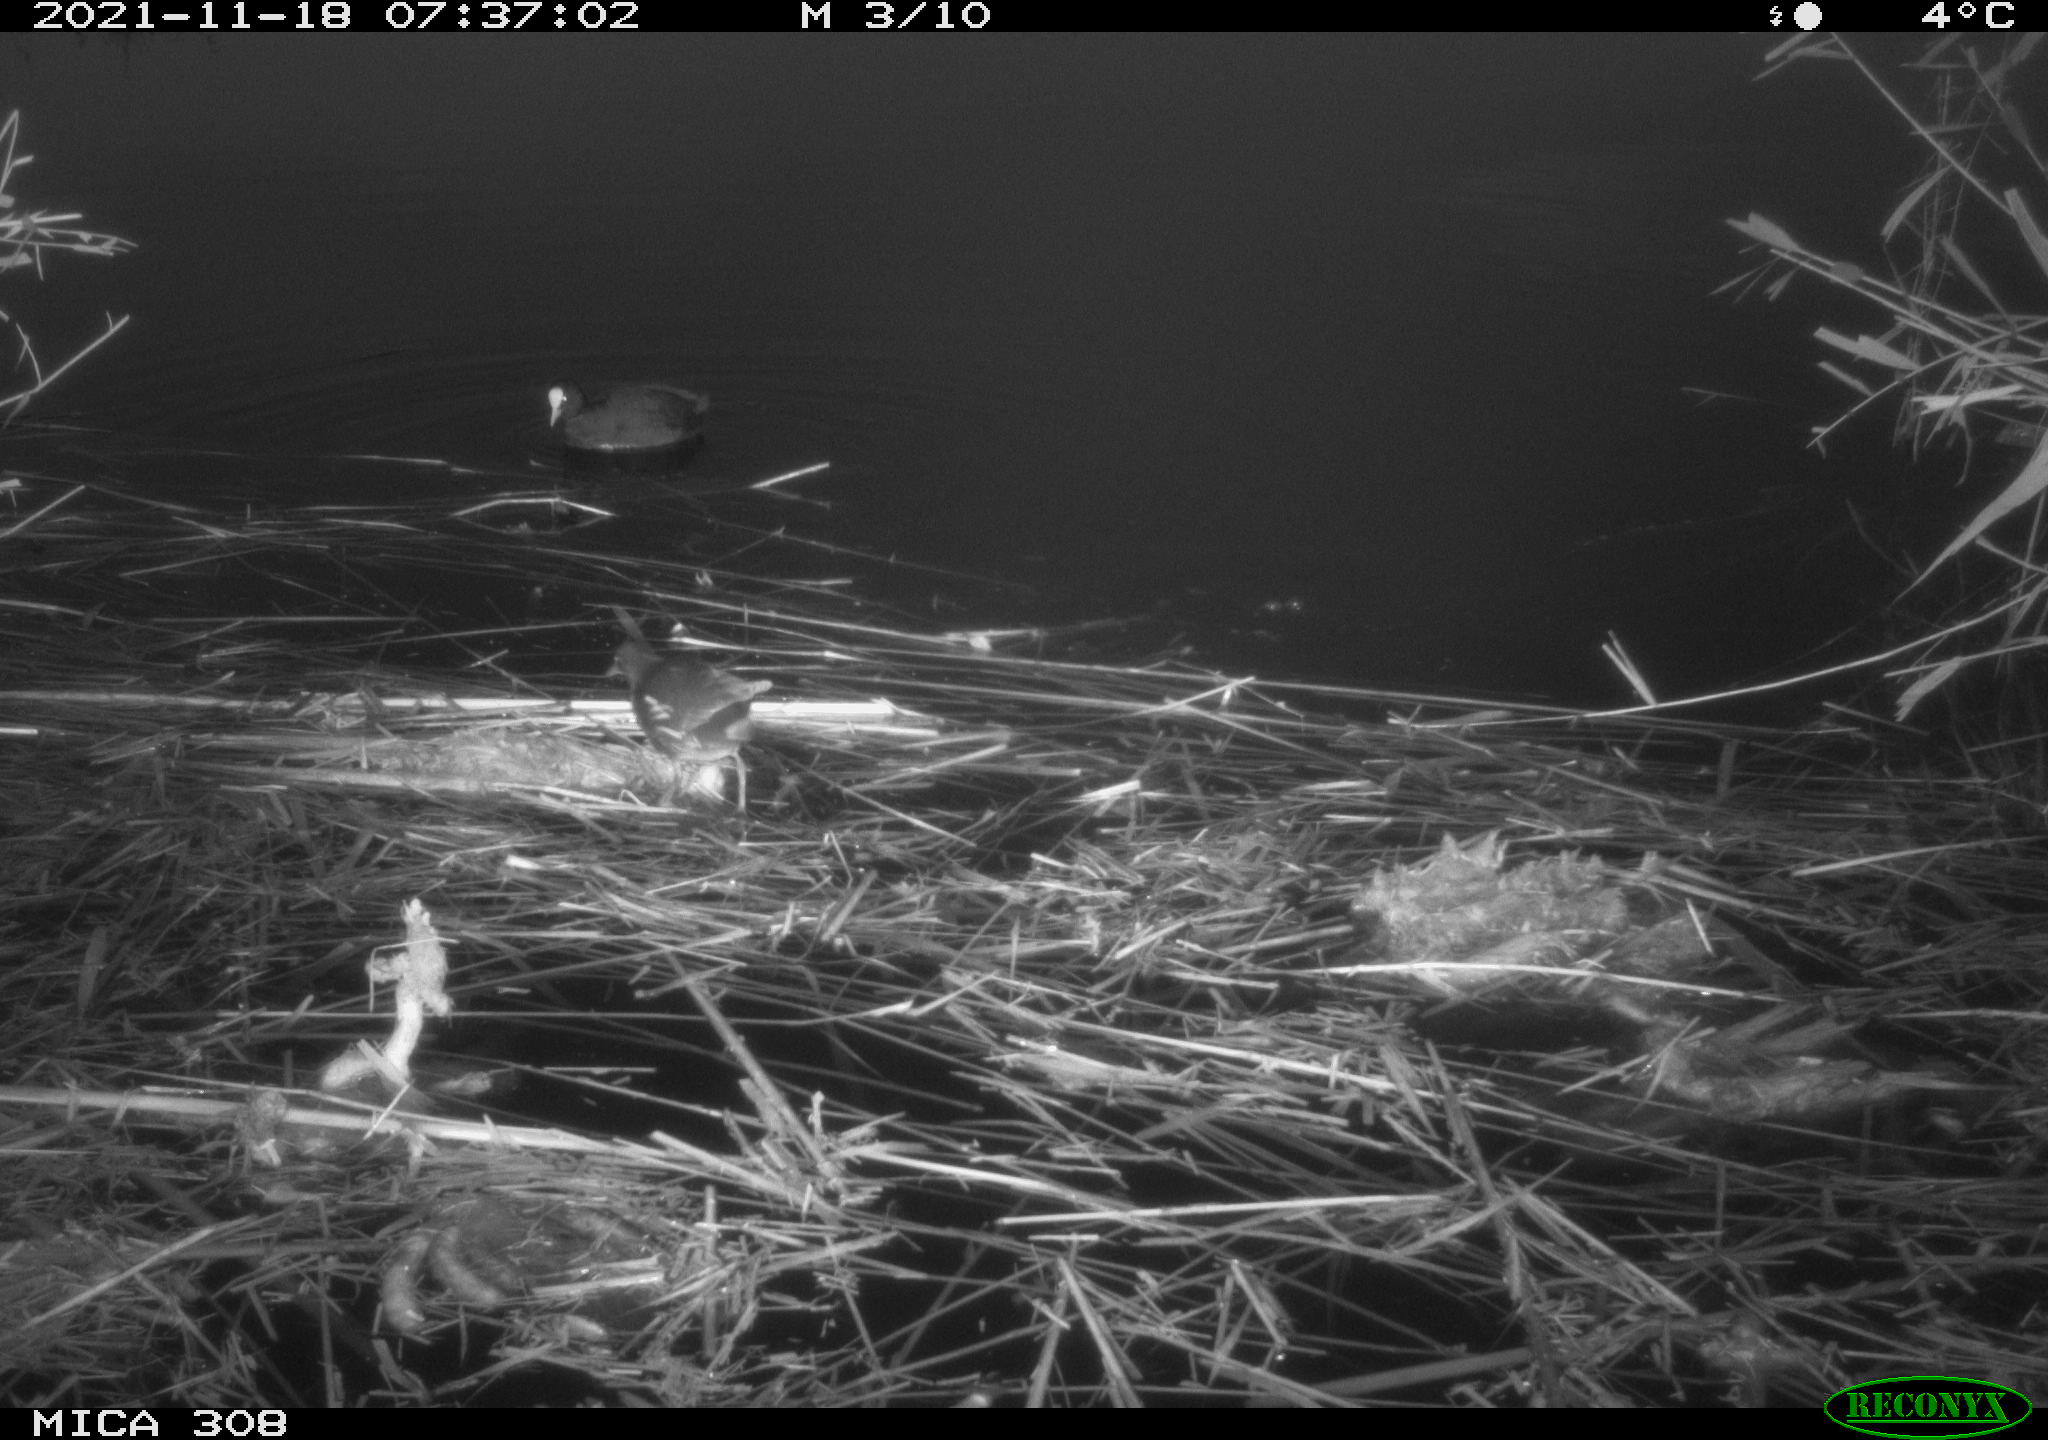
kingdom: Animalia
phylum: Chordata
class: Aves
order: Gruiformes
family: Rallidae
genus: Gallinula
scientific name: Gallinula chloropus
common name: Common moorhen
